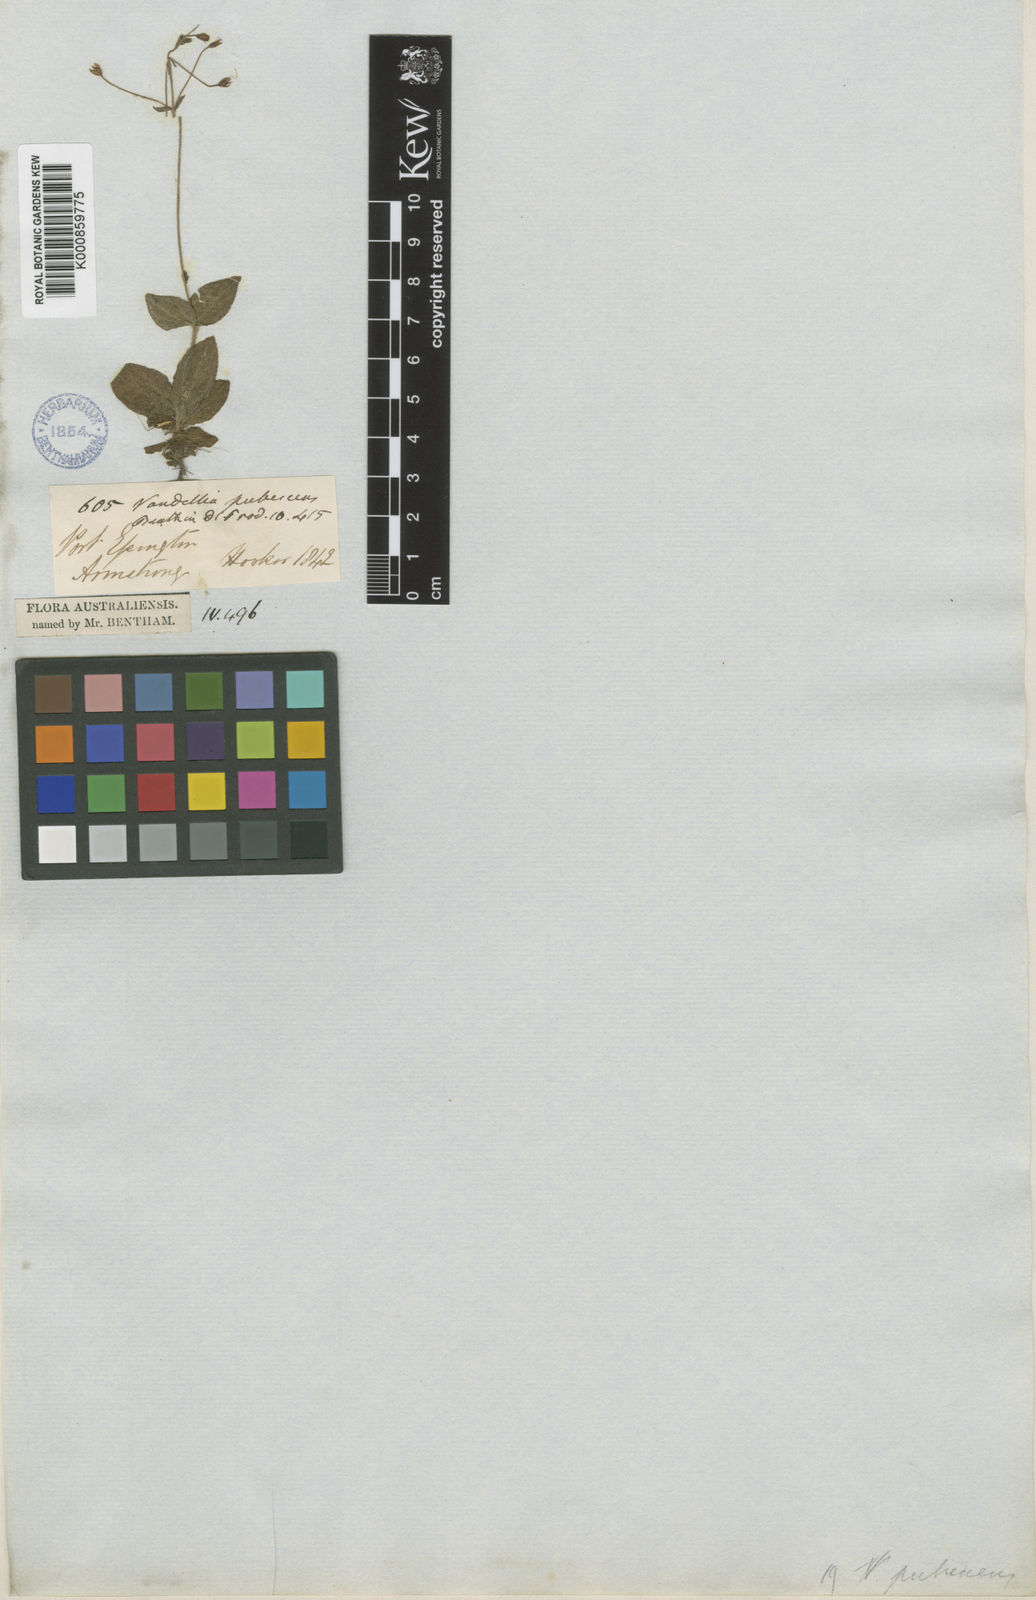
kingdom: Plantae
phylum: Tracheophyta
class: Magnoliopsida
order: Lamiales
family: Linderniaceae
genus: Lindernia
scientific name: Lindernia pubescens
